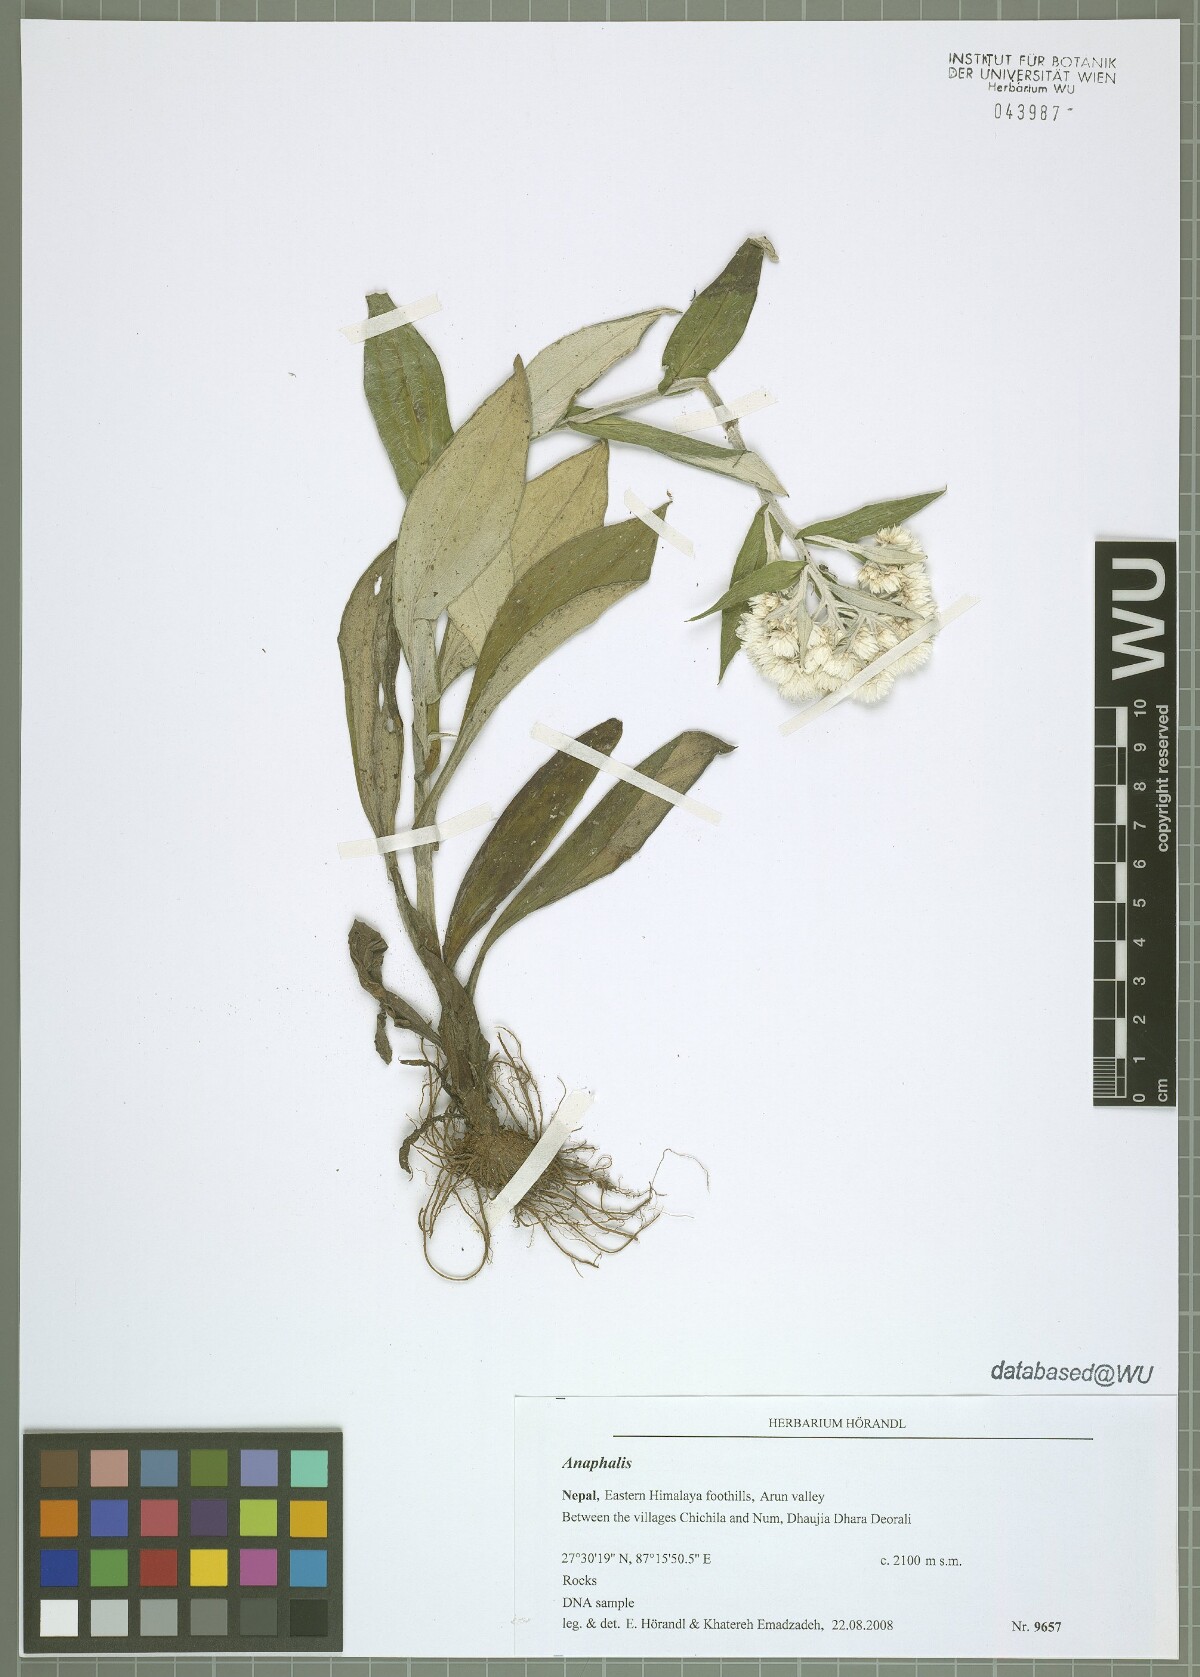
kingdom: Plantae
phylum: Tracheophyta
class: Magnoliopsida
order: Asterales
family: Asteraceae
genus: Anaphalis
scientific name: Anaphalis
